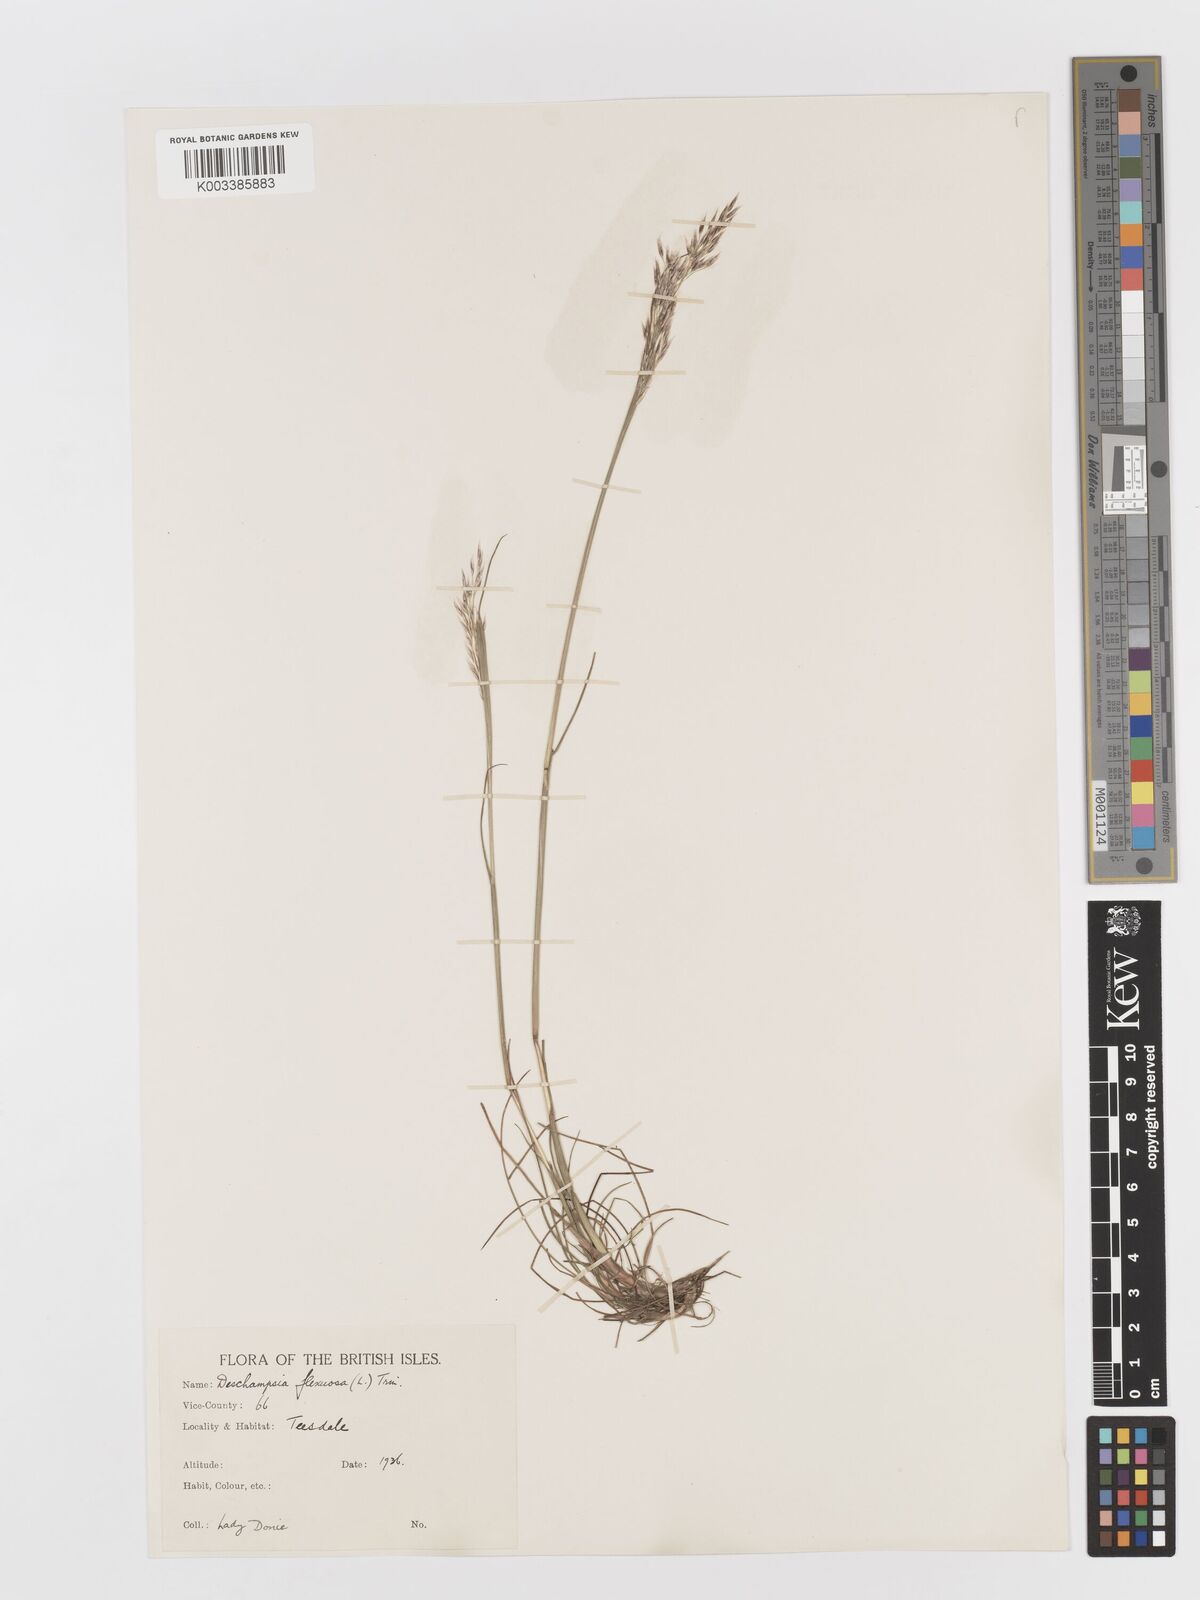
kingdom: Plantae
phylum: Tracheophyta
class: Liliopsida
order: Poales
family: Poaceae
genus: Avenella
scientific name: Avenella flexuosa
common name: Wavy hairgrass
